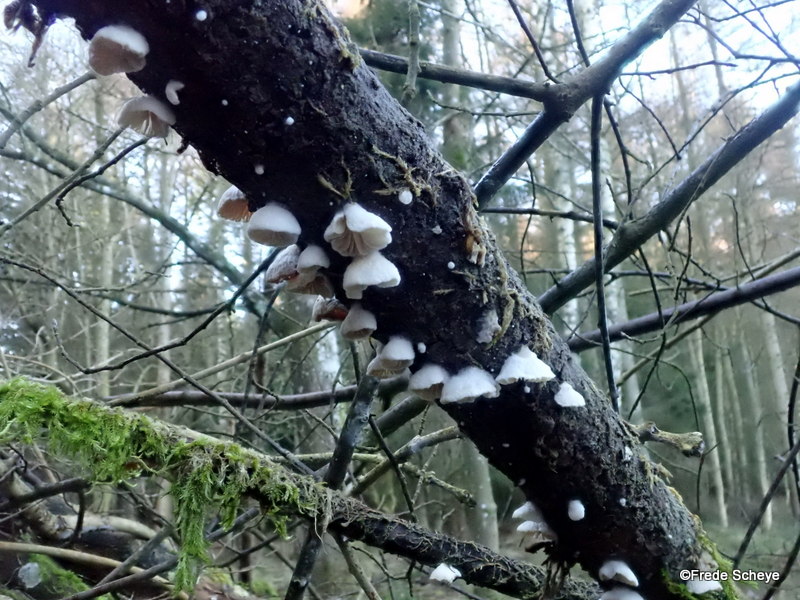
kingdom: Fungi
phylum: Basidiomycota
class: Agaricomycetes
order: Agaricales
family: Crepidotaceae
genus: Crepidotus
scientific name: Crepidotus cesatii
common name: almindelig muslingesvamp
